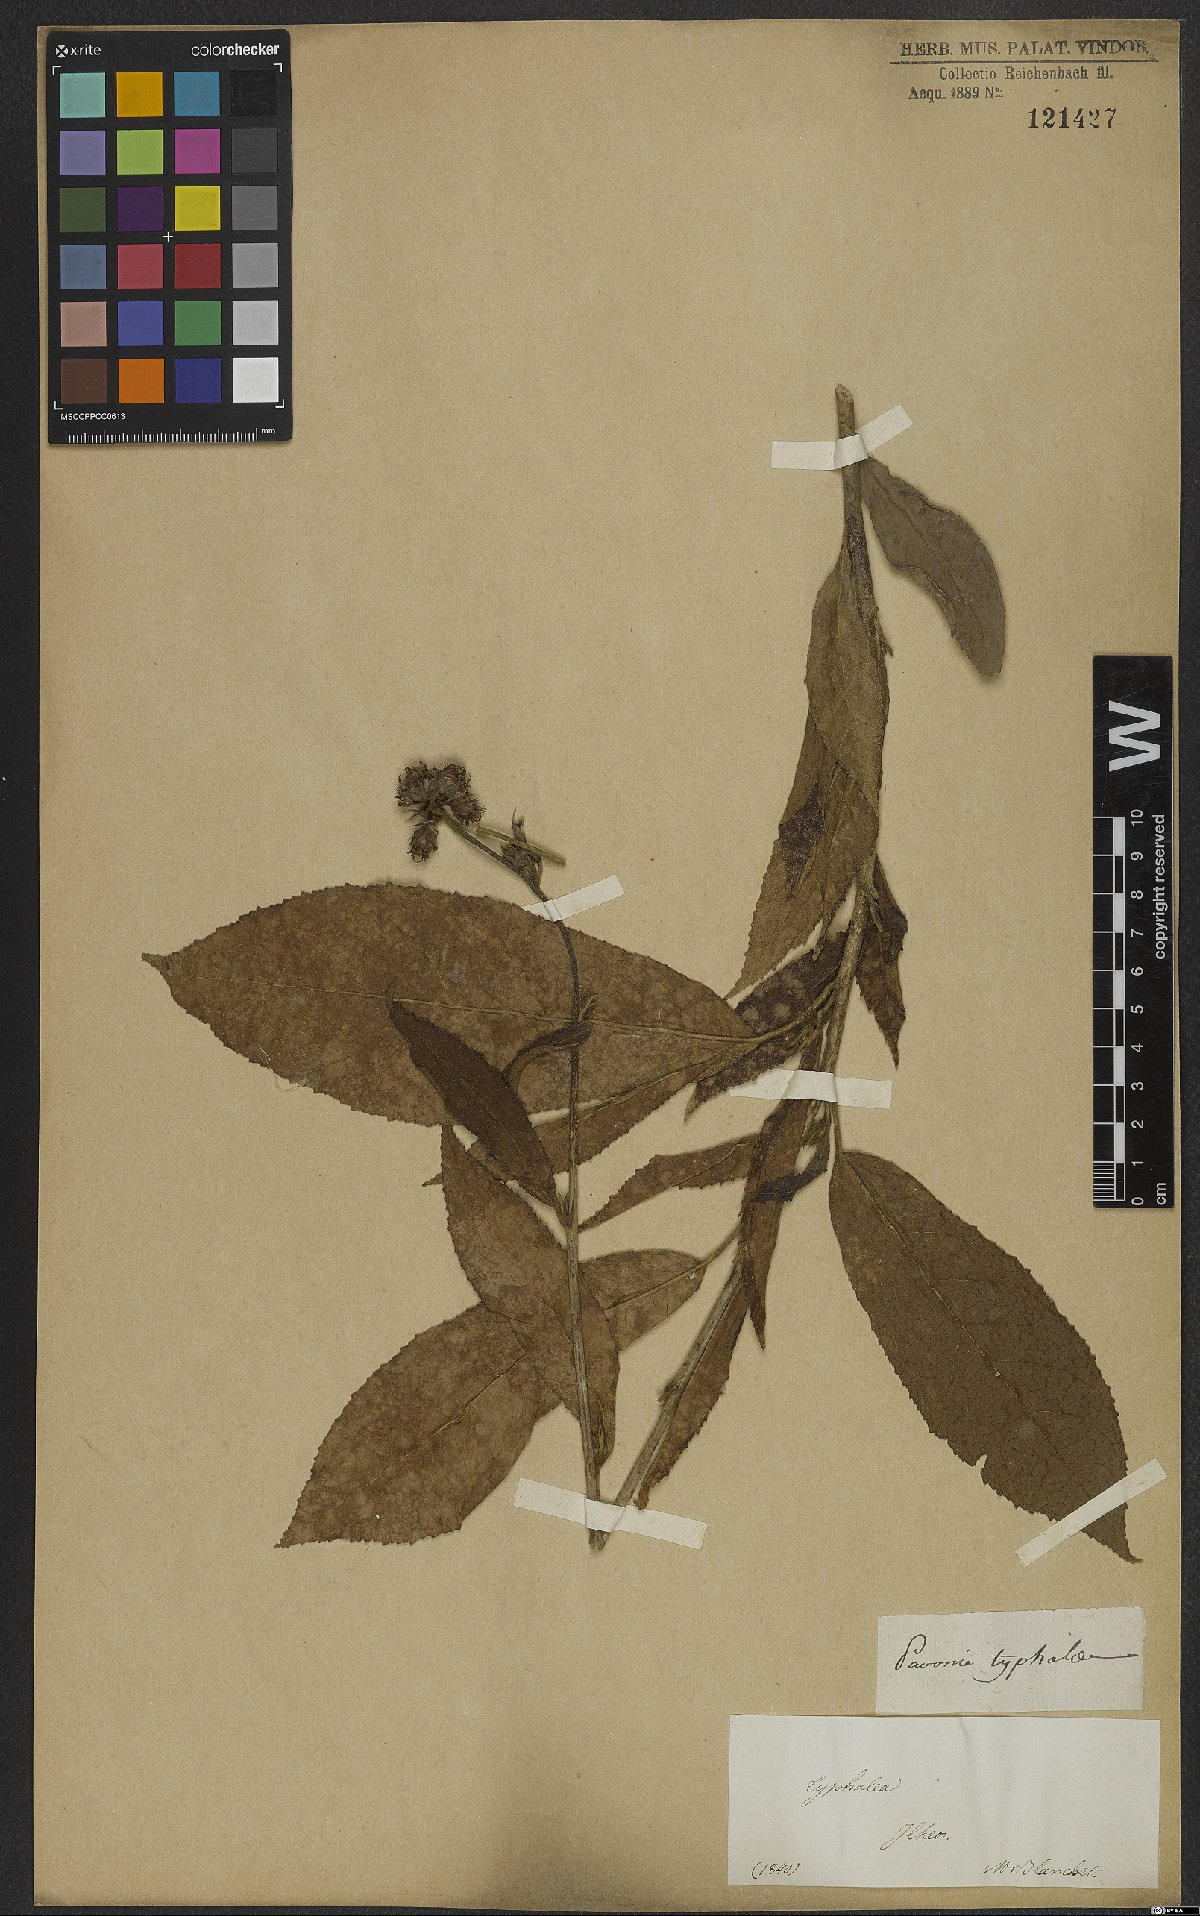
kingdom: Plantae
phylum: Tracheophyta
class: Magnoliopsida
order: Malvales
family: Malvaceae
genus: Pavonia
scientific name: Pavonia fruticosa
